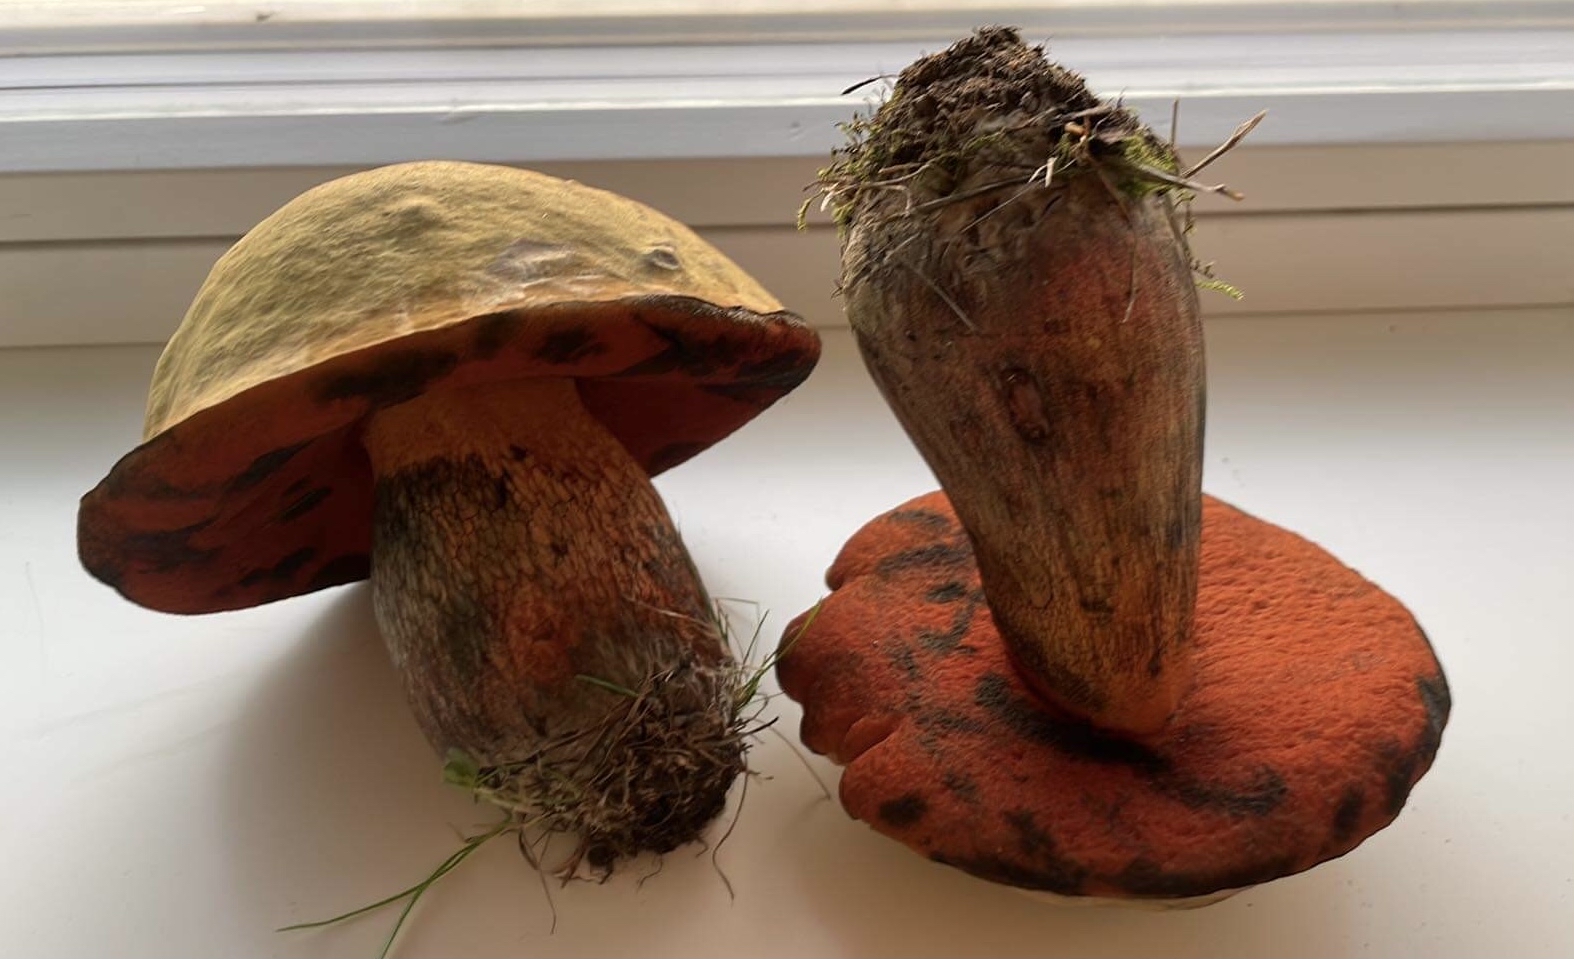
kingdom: Fungi
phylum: Basidiomycota
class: Agaricomycetes
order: Boletales
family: Boletaceae
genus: Suillellus
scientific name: Suillellus luridus
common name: netstokket indigorørhat
